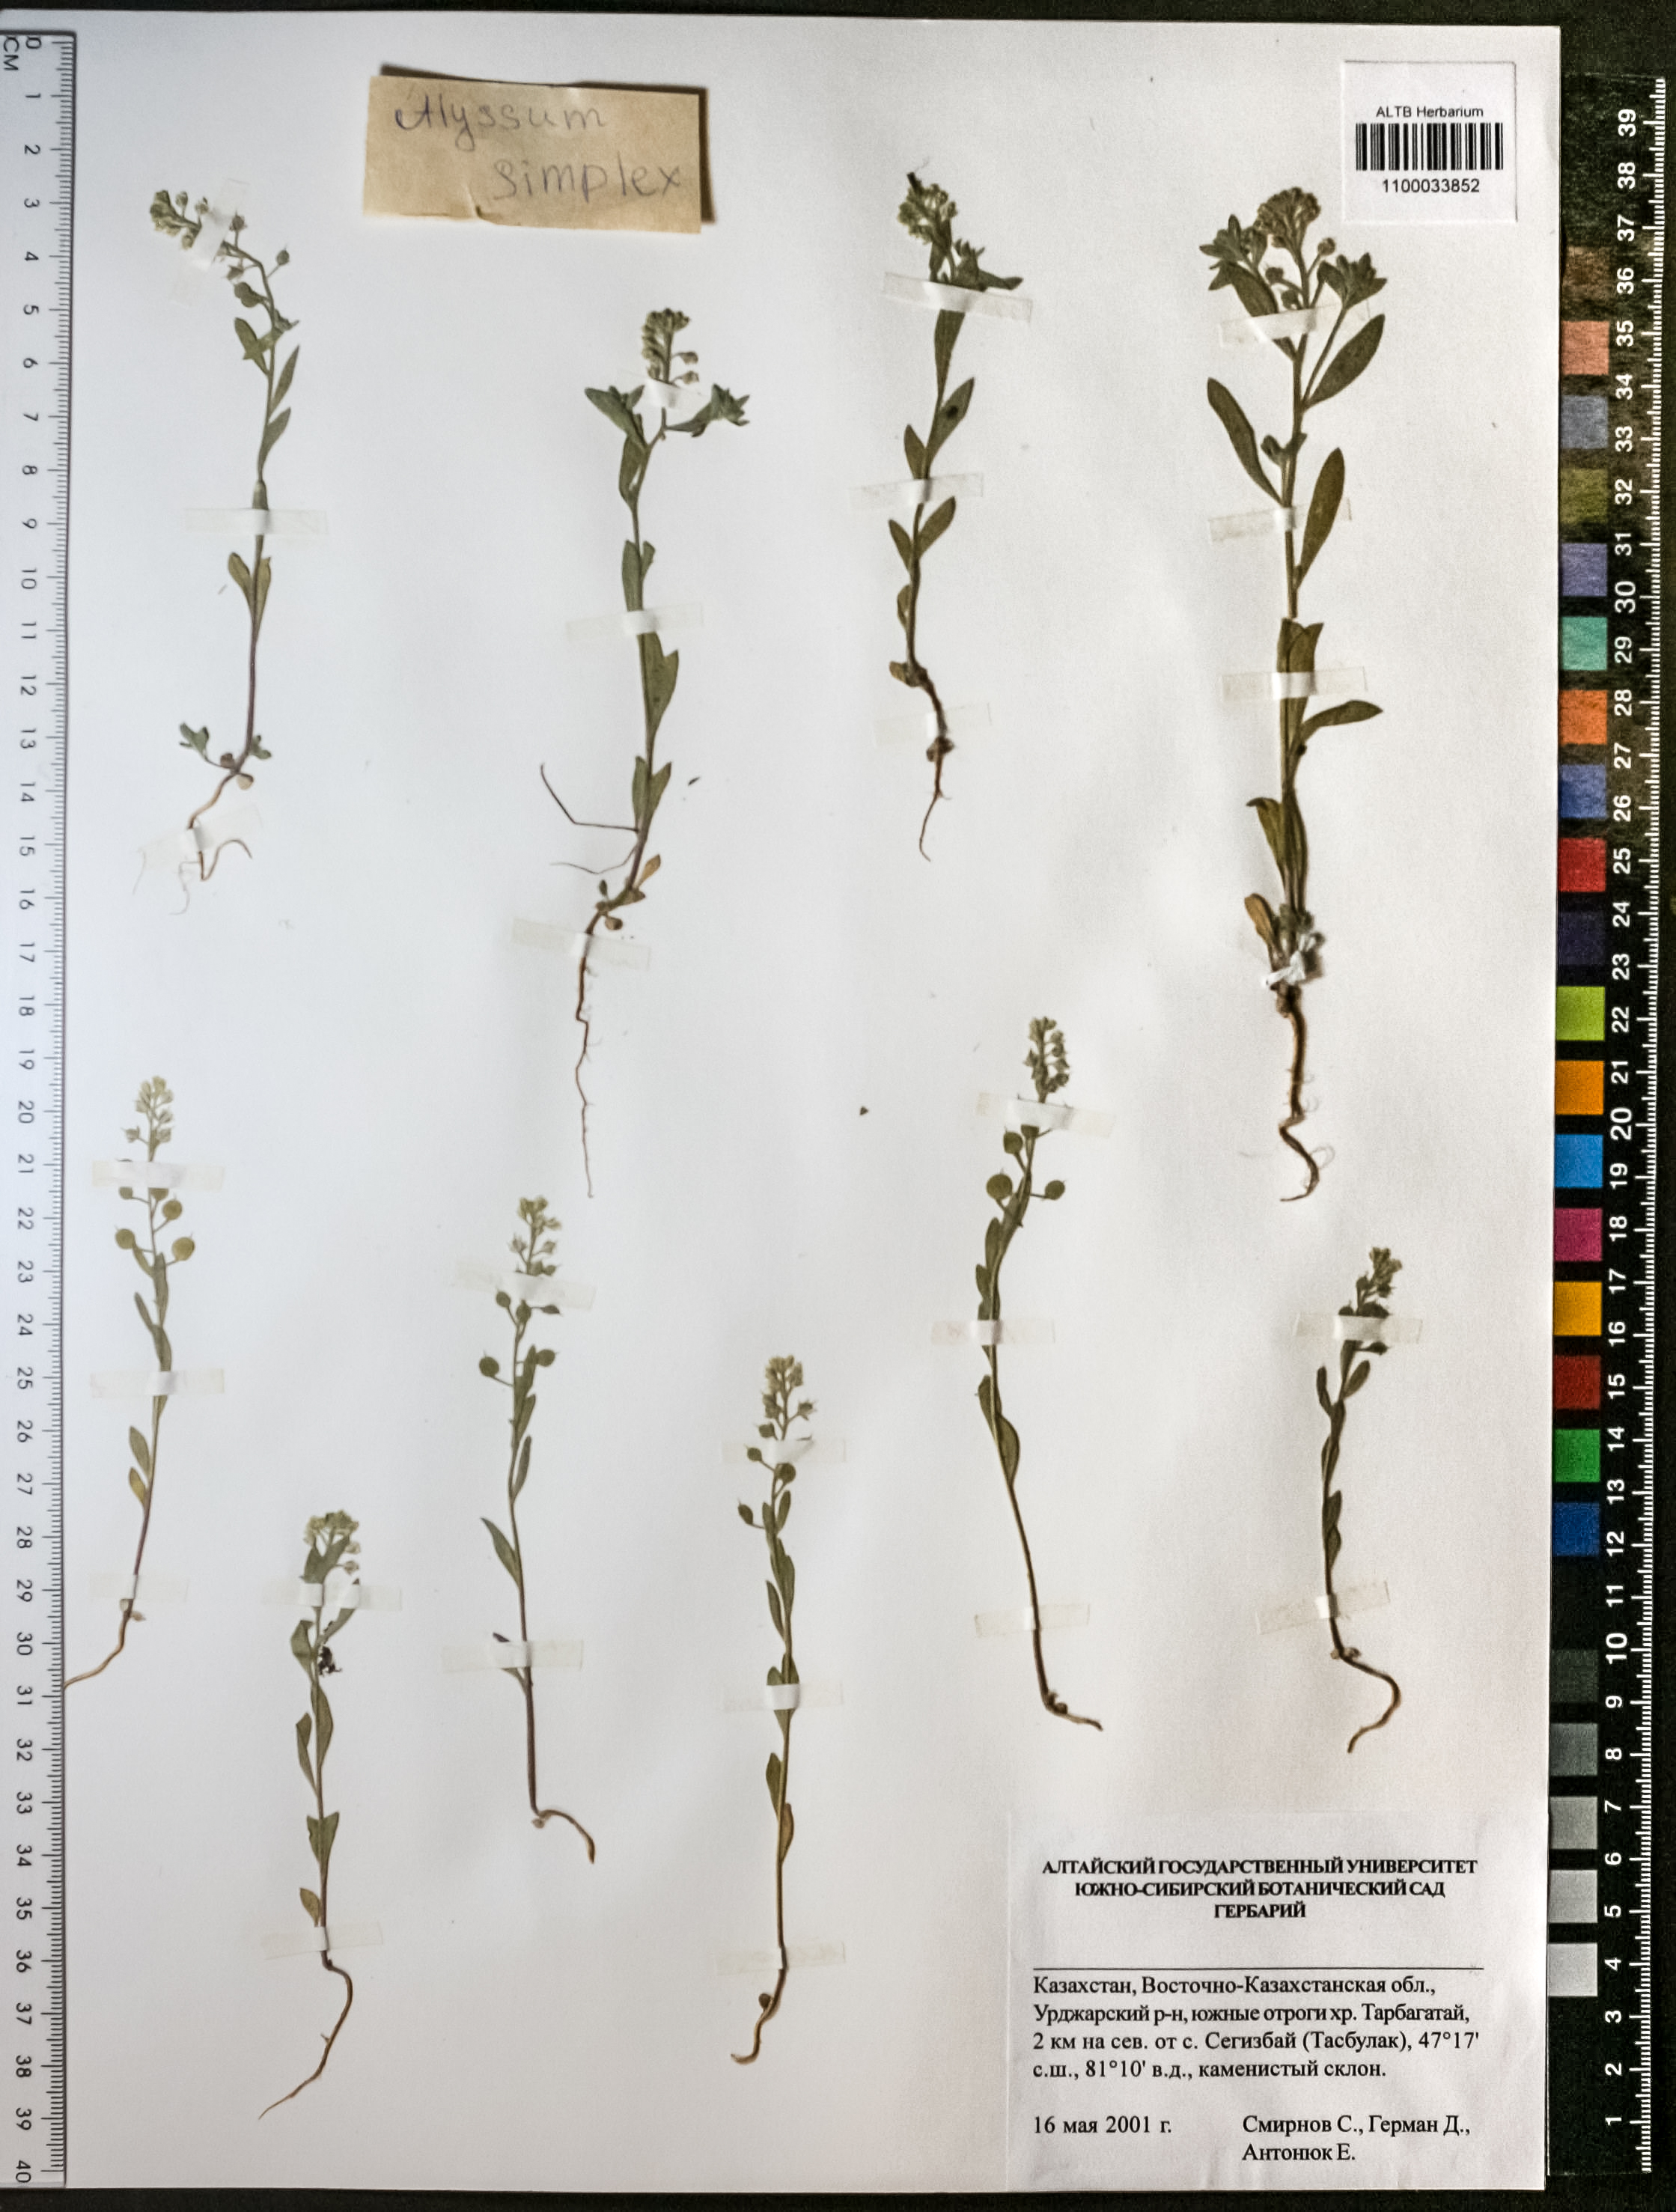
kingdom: Plantae
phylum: Tracheophyta
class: Magnoliopsida
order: Brassicales
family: Brassicaceae
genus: Alyssum
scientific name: Alyssum simplex
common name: Alyssum
